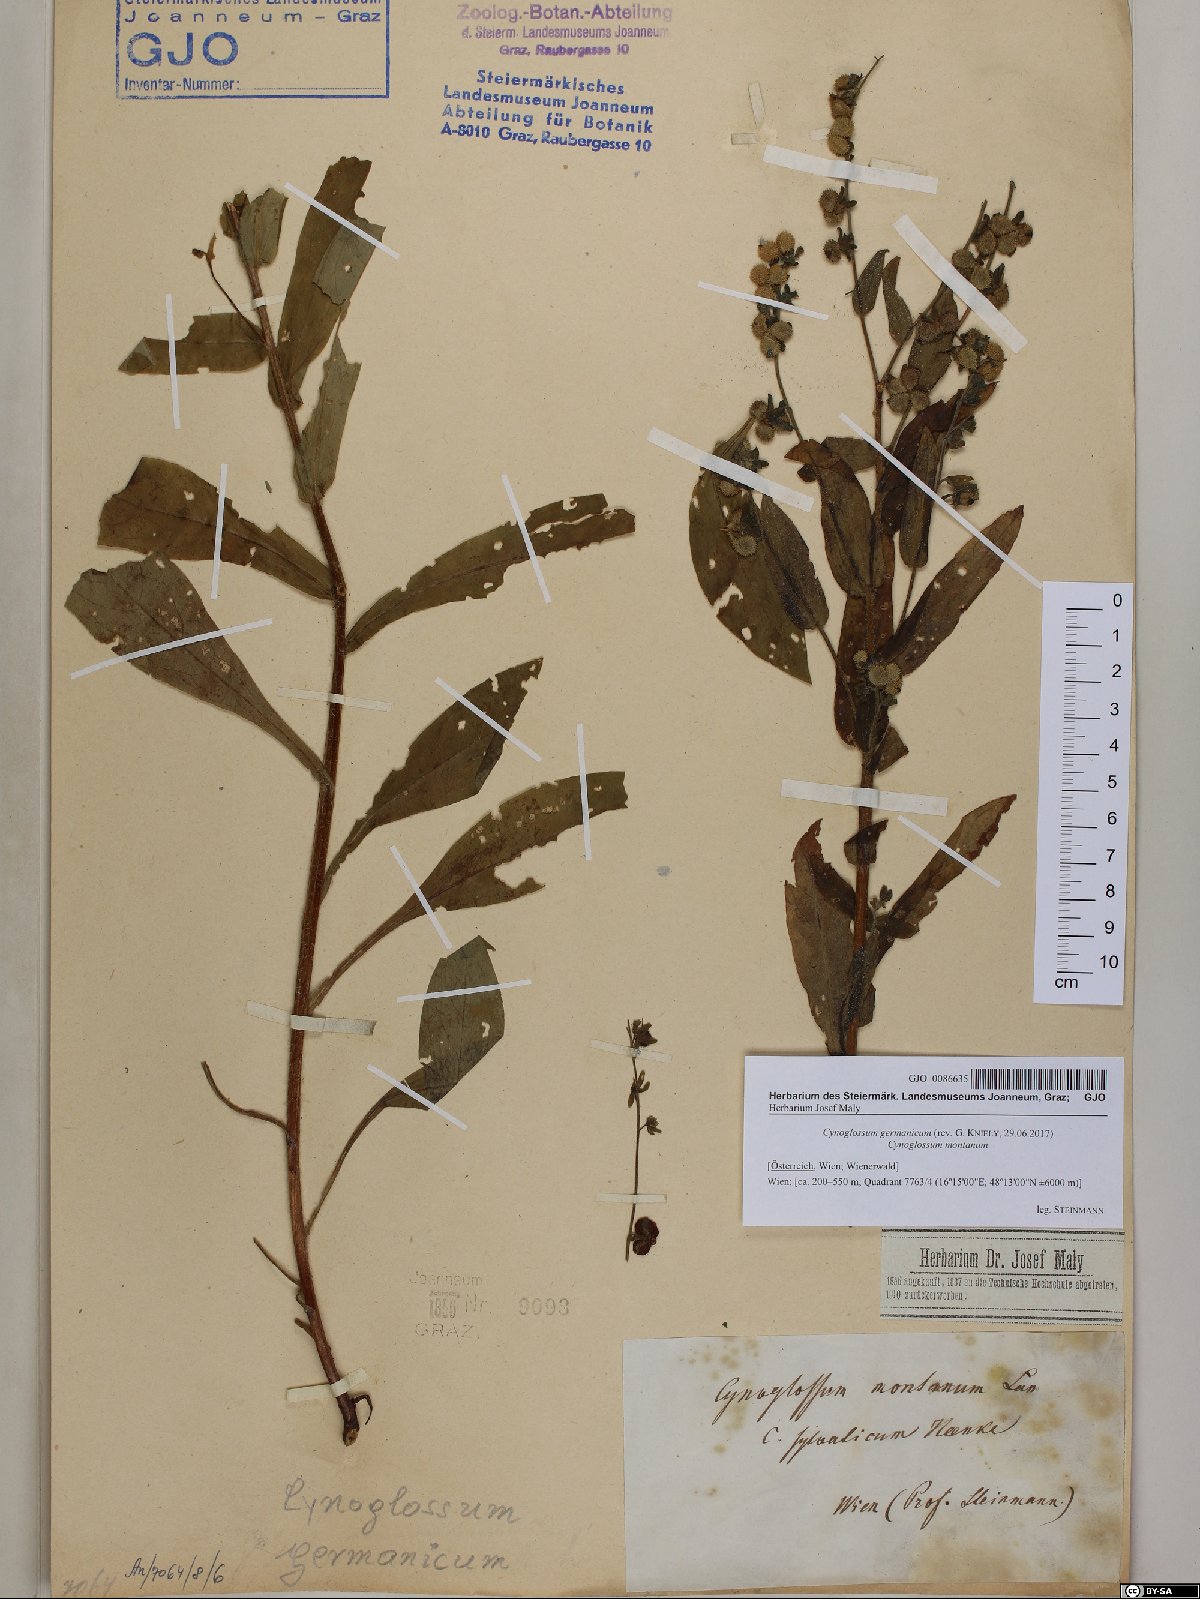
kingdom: Plantae
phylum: Tracheophyta
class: Magnoliopsida
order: Boraginales
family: Boraginaceae
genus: Cynoglossum
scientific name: Cynoglossum germanicum
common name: Green hound's-tongue
